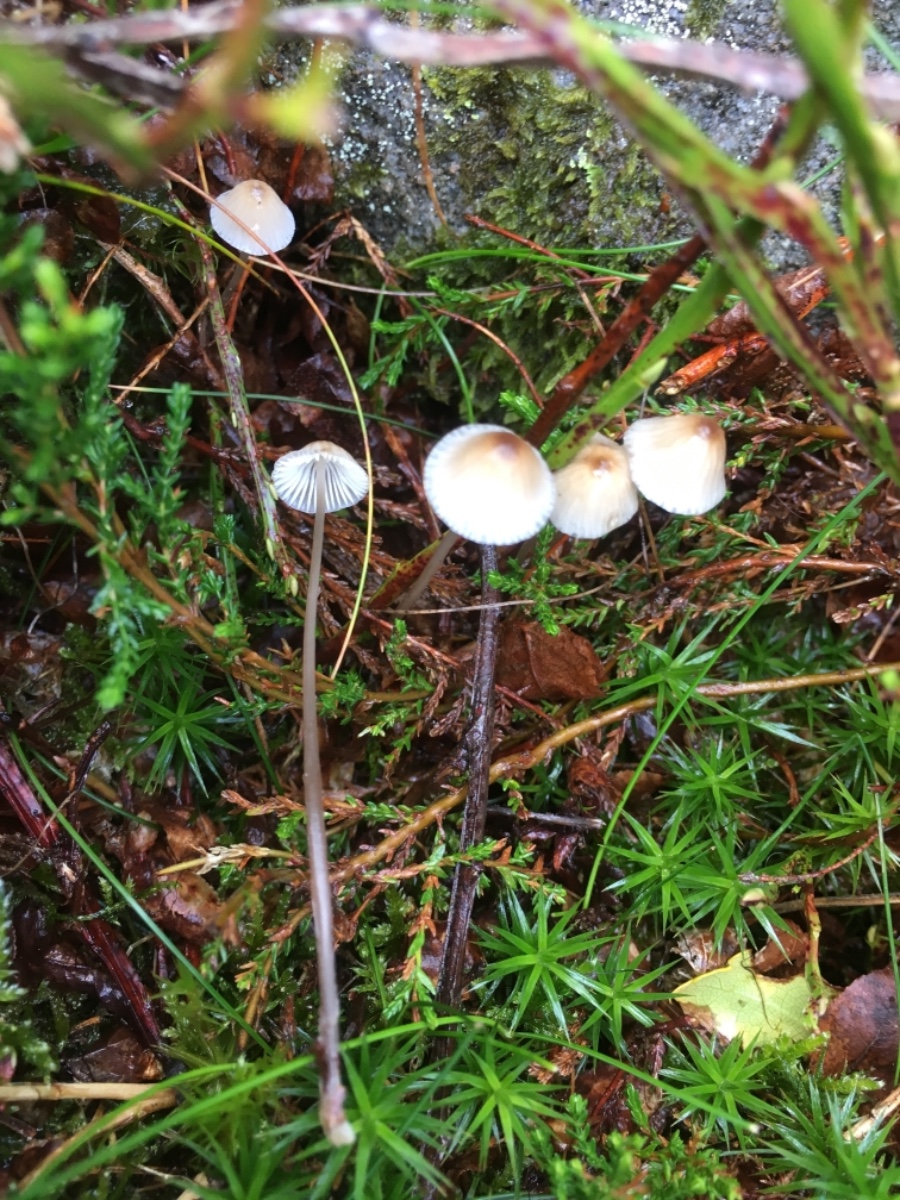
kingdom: Fungi
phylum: Basidiomycota
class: Agaricomycetes
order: Agaricales
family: Mycenaceae
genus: Mycena
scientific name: Mycena galopus
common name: hvidmælket huesvamp
